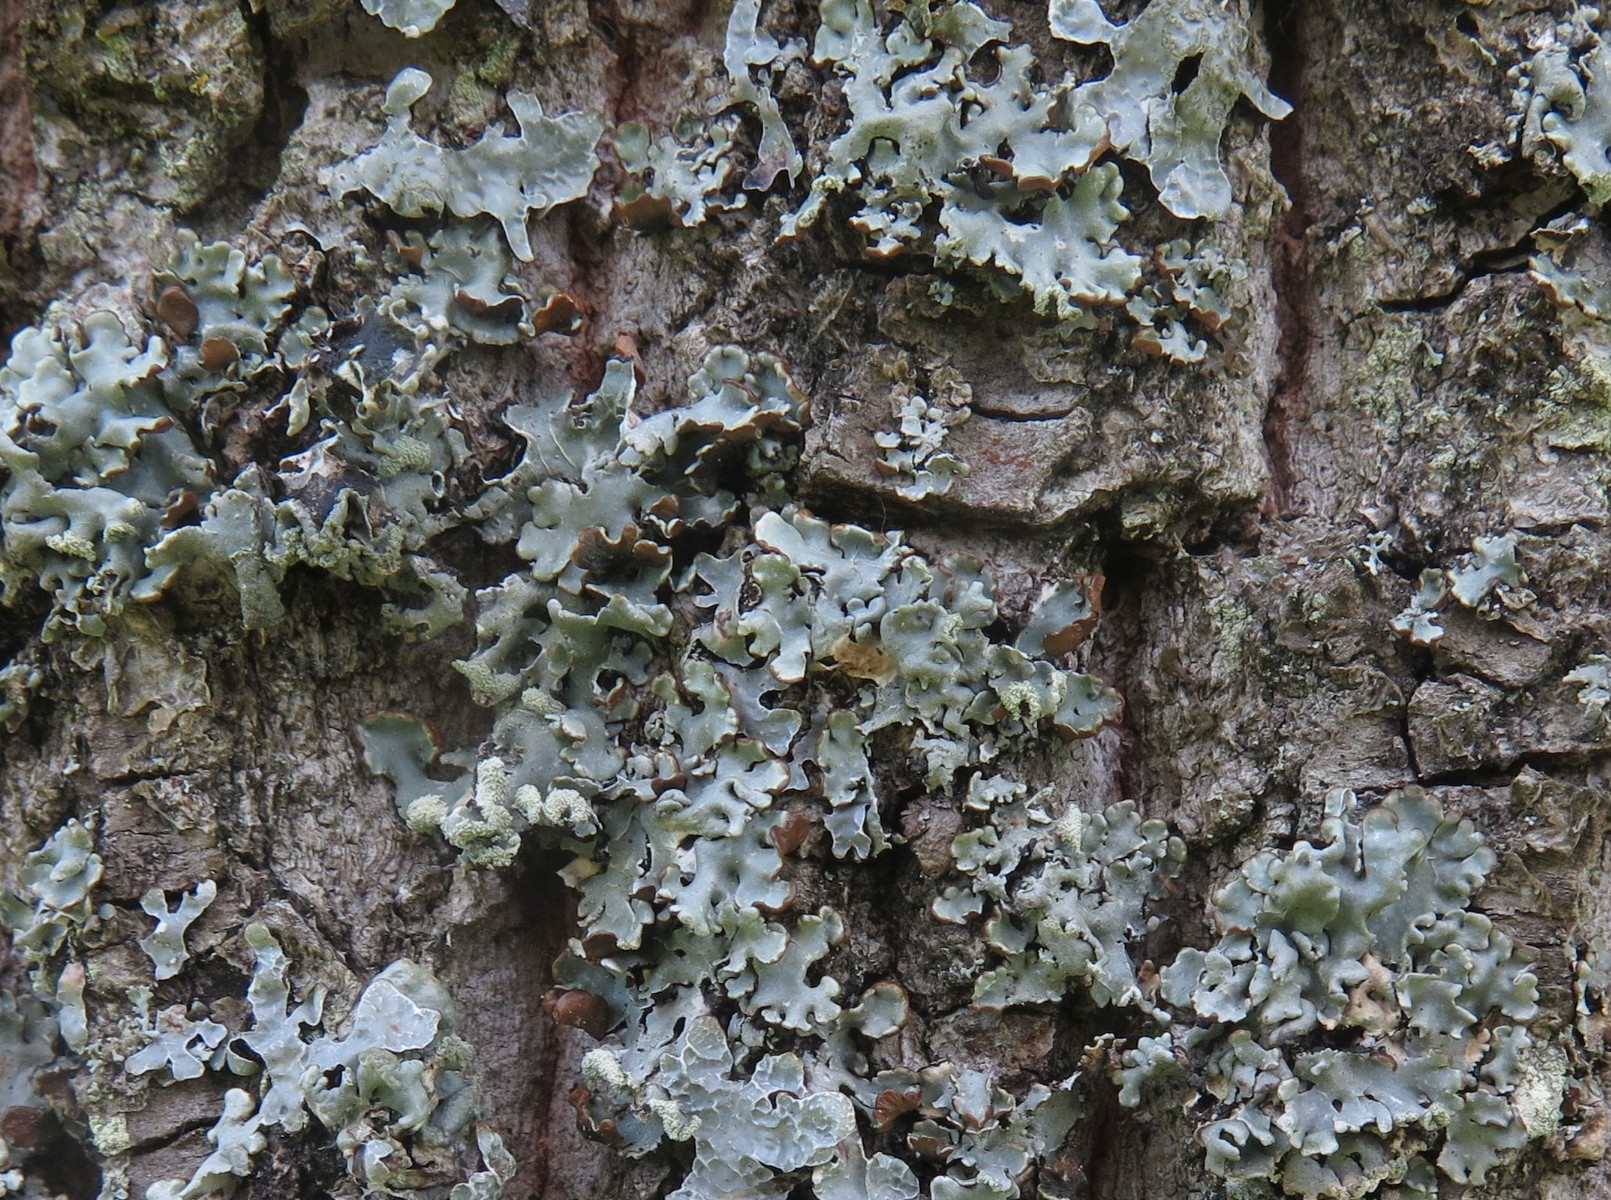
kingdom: Fungi
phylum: Ascomycota
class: Lecanoromycetes
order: Lecanorales
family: Parmeliaceae
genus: Hypogymnia
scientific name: Hypogymnia physodes
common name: almindelig kvistlav
